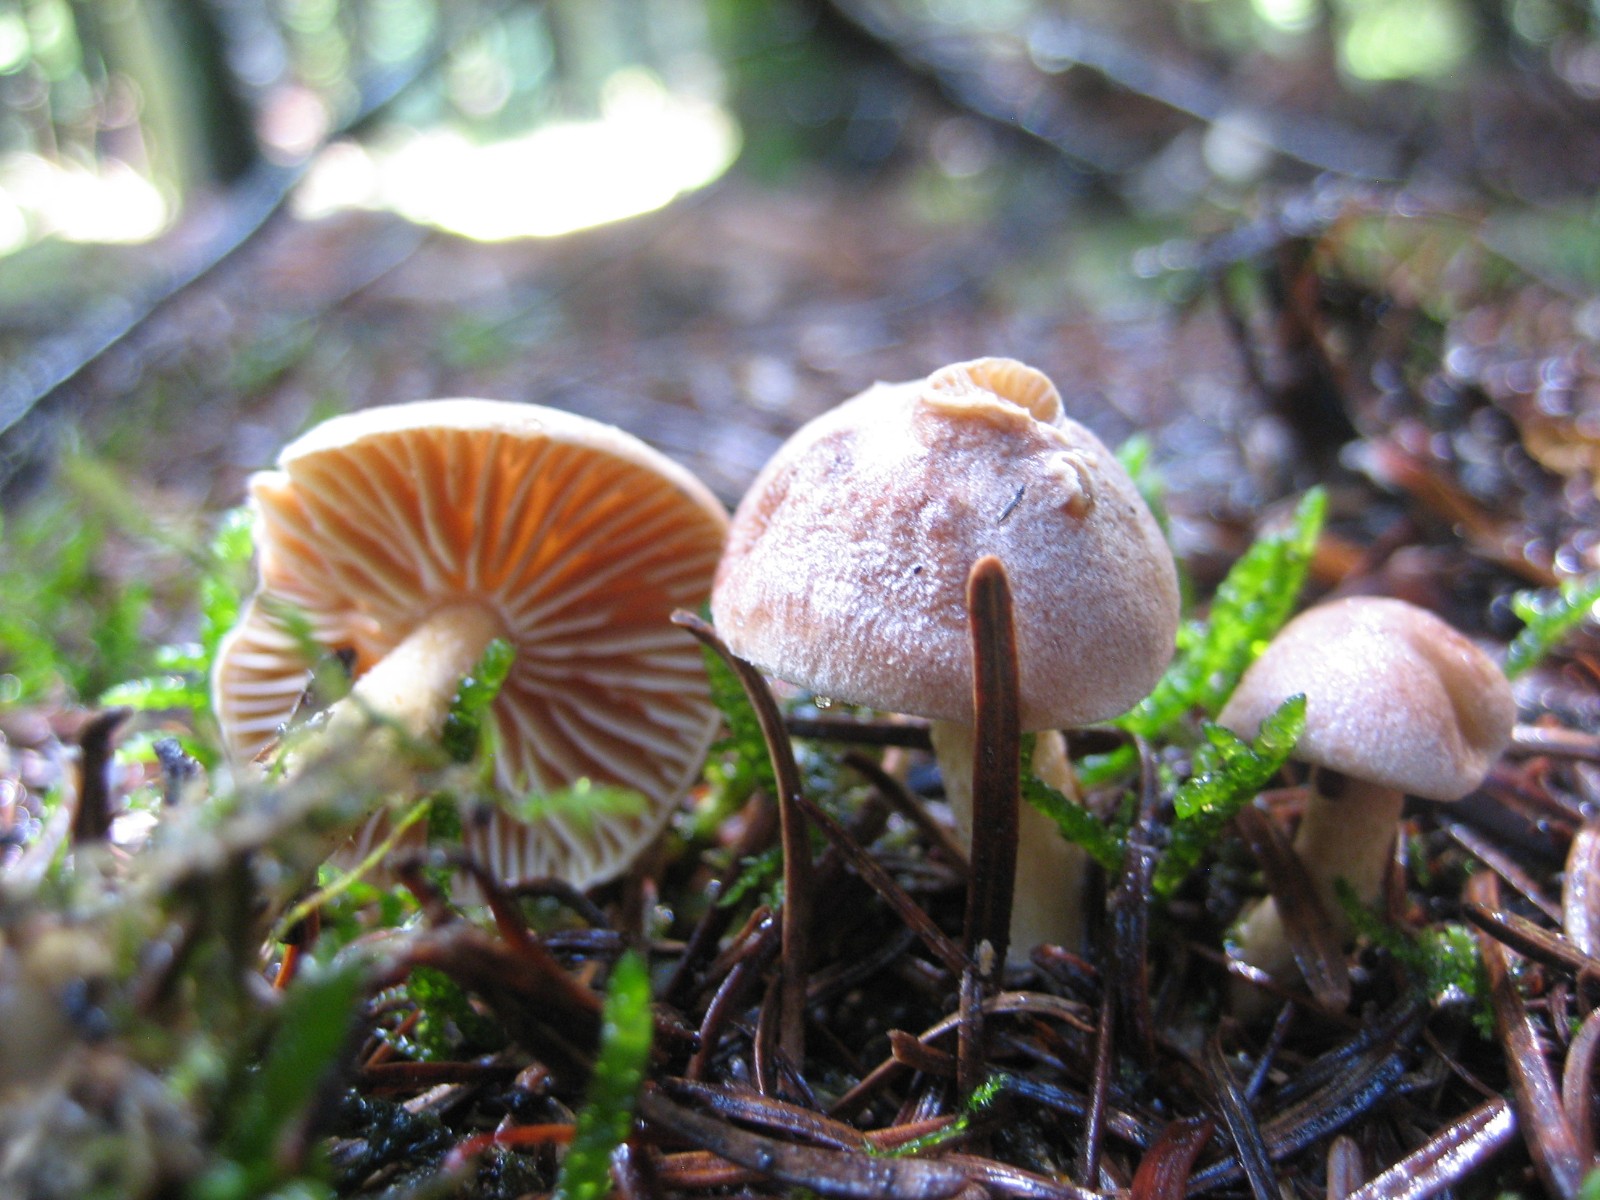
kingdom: Fungi
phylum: Basidiomycota
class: Agaricomycetes
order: Agaricales
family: Omphalotaceae
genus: Collybiopsis
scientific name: Collybiopsis peronata
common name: bestøvlet fladhat
